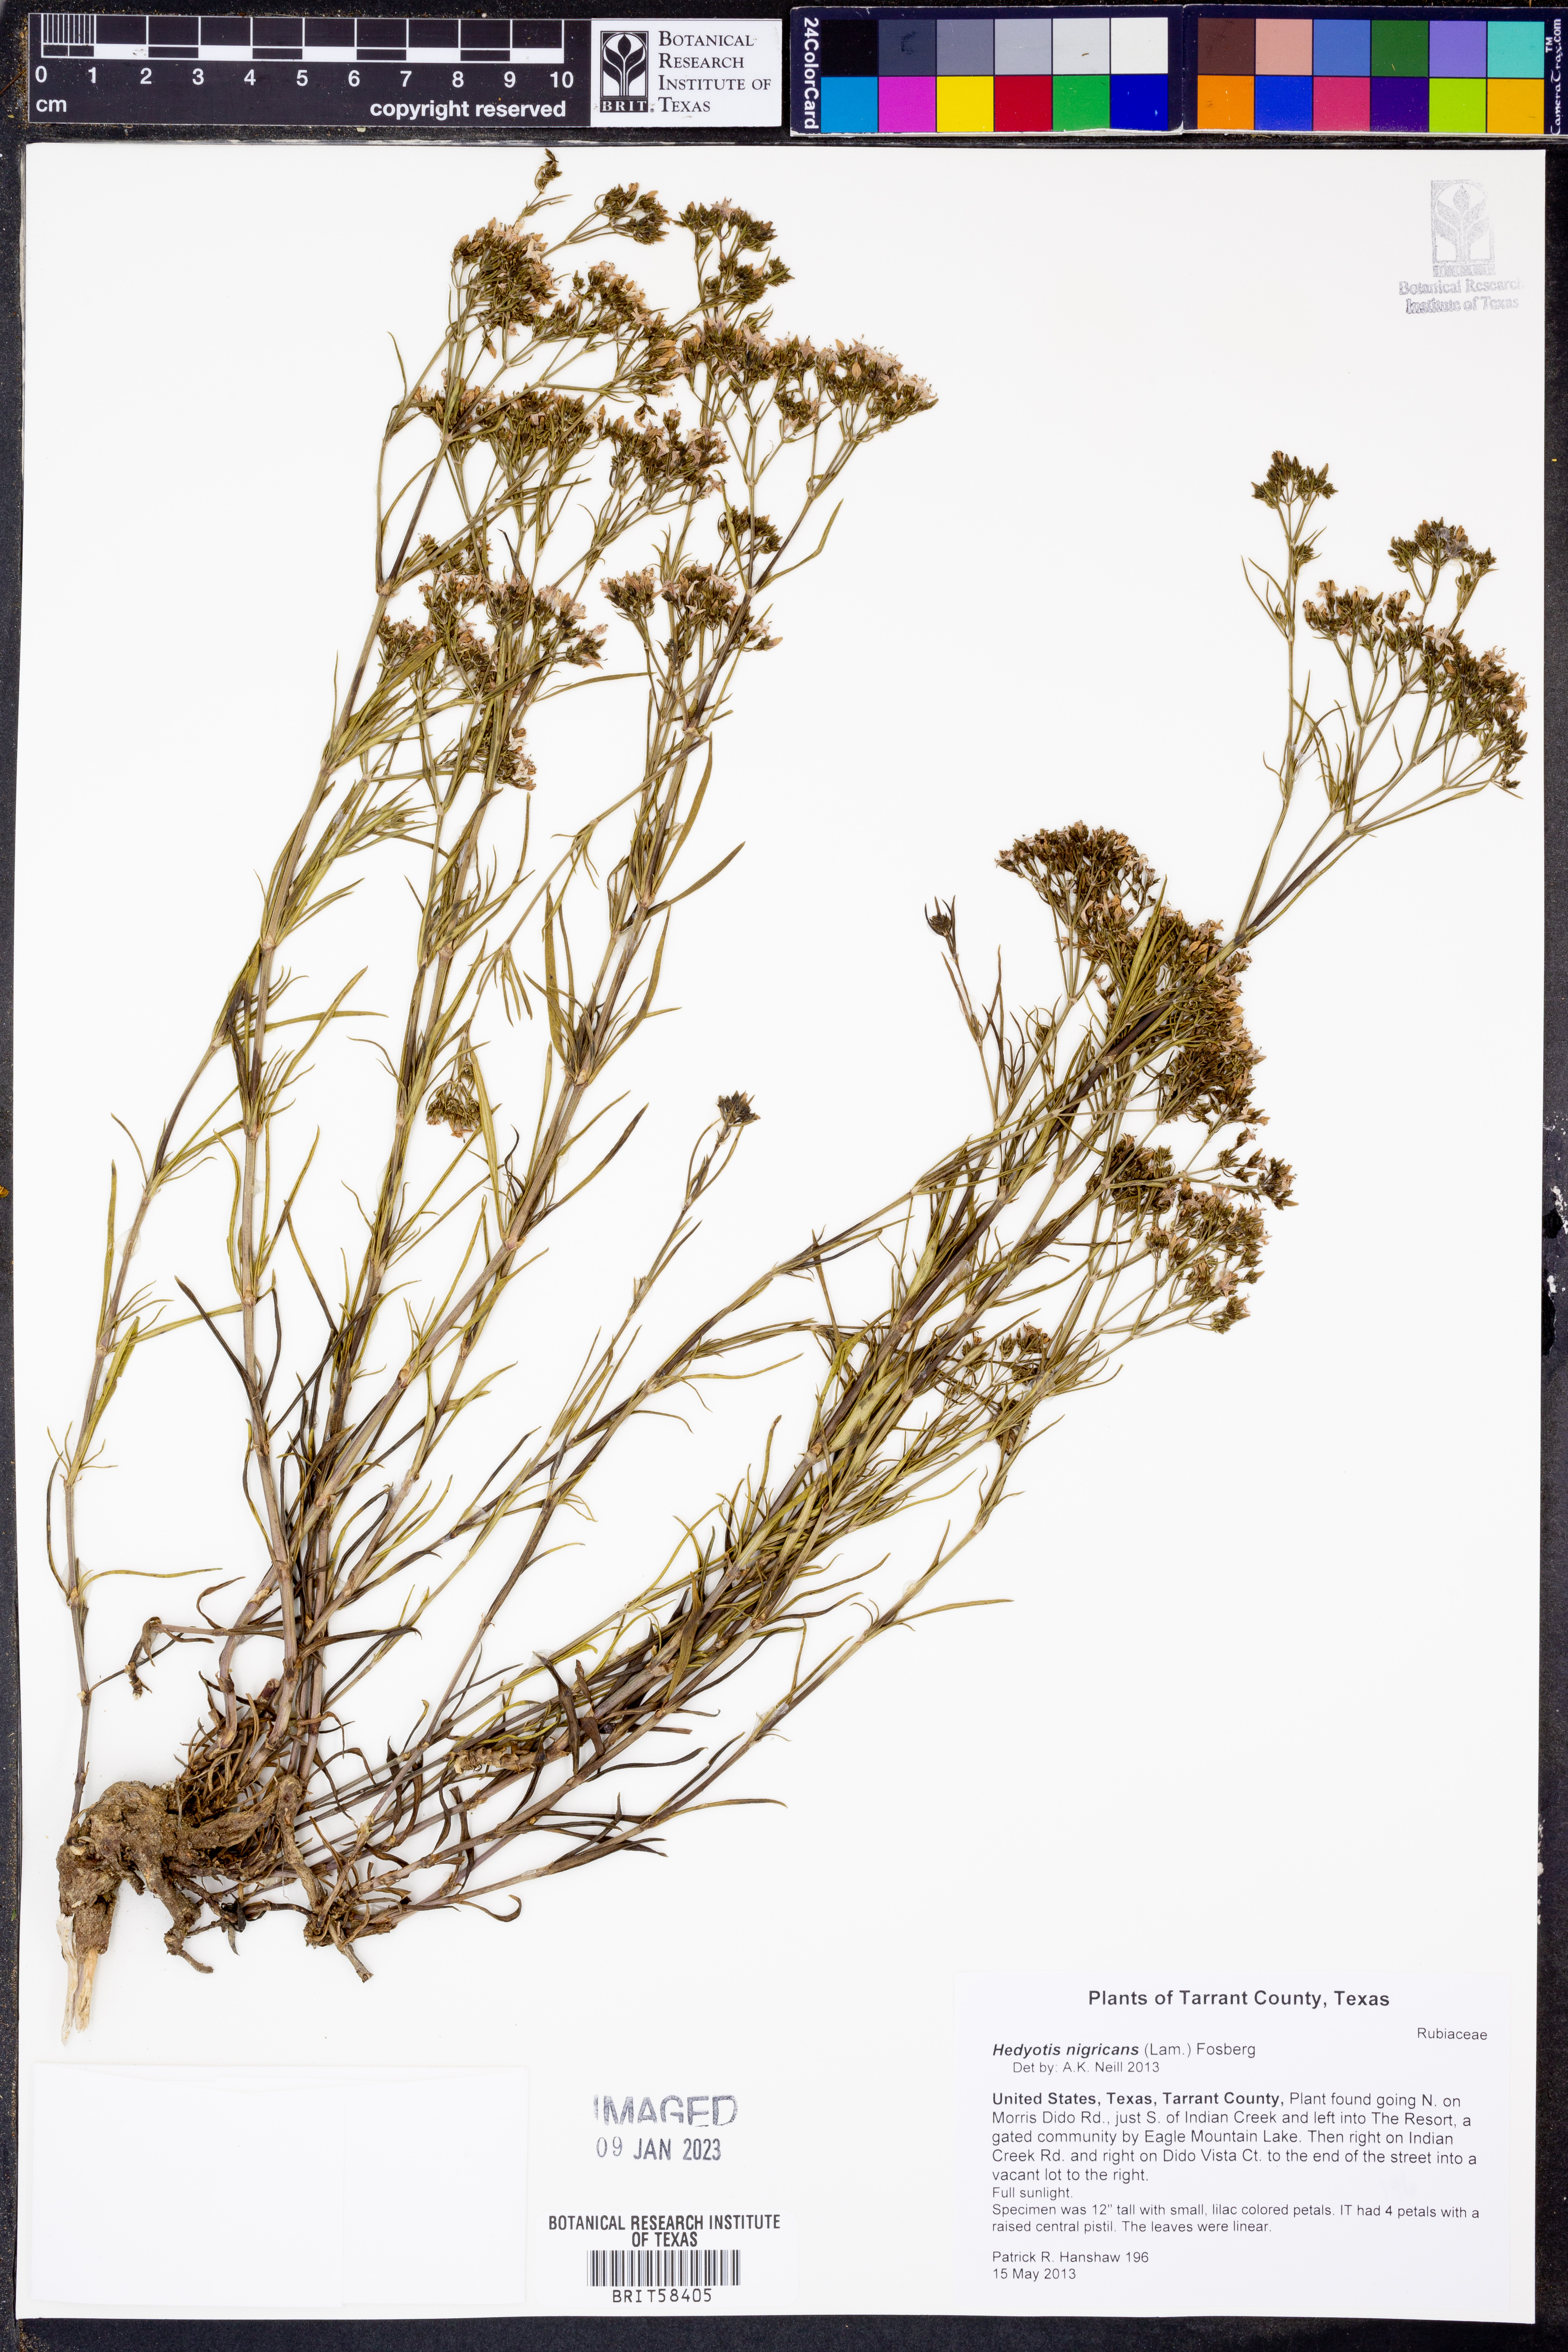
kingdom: Plantae
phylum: Tracheophyta
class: Magnoliopsida
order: Gentianales
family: Rubiaceae
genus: Stenaria
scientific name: Stenaria nigricans
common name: Diamondflowers
